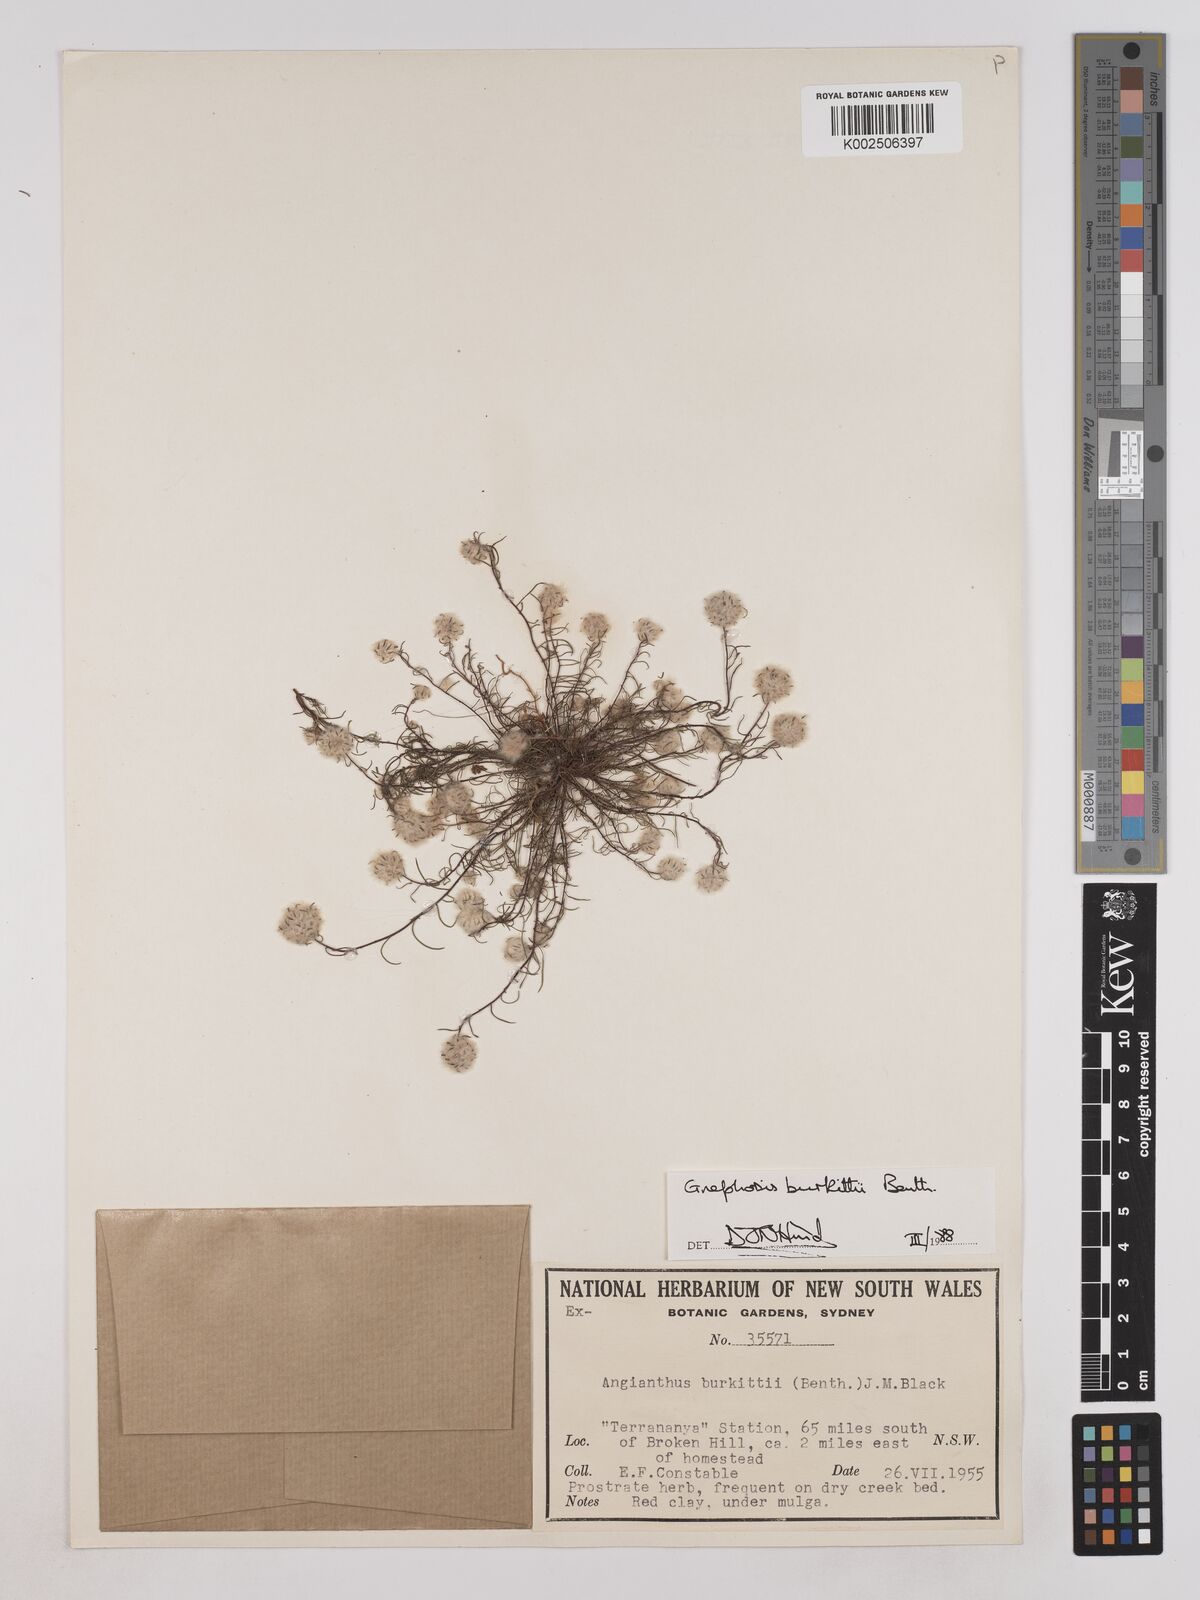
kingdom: Plantae
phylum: Tracheophyta
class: Magnoliopsida
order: Asterales
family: Asteraceae
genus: Lemooria
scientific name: Lemooria burkittii
